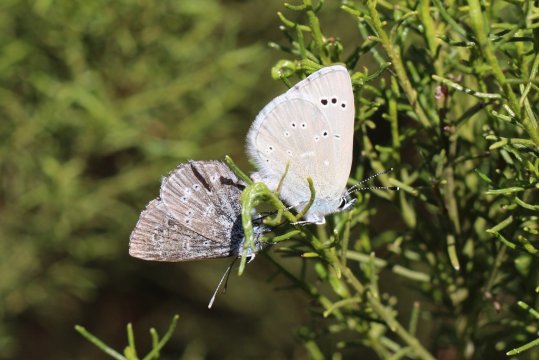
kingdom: Animalia
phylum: Arthropoda
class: Insecta
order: Lepidoptera
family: Lycaenidae
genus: Glaucopsyche
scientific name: Glaucopsyche lygdamus
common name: Silvery Blue
